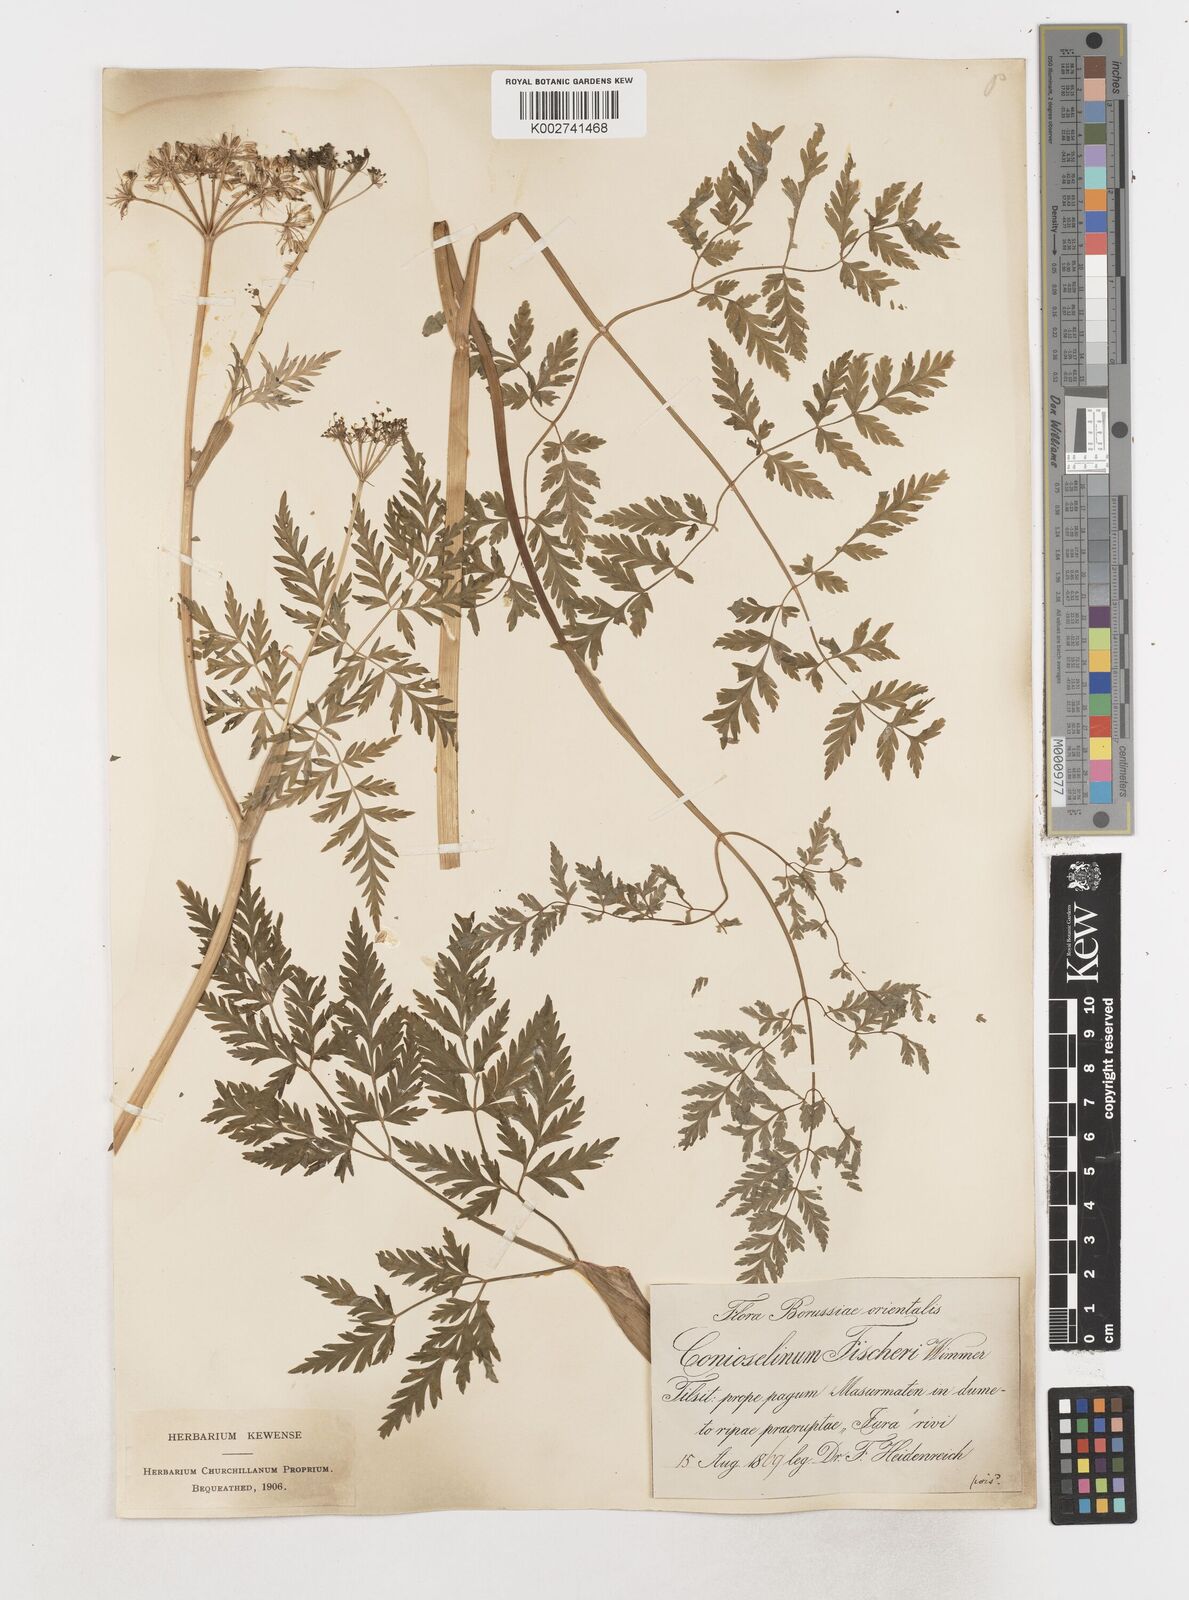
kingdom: Plantae
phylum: Tracheophyta
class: Magnoliopsida
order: Apiales
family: Apiaceae
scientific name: Apiaceae
